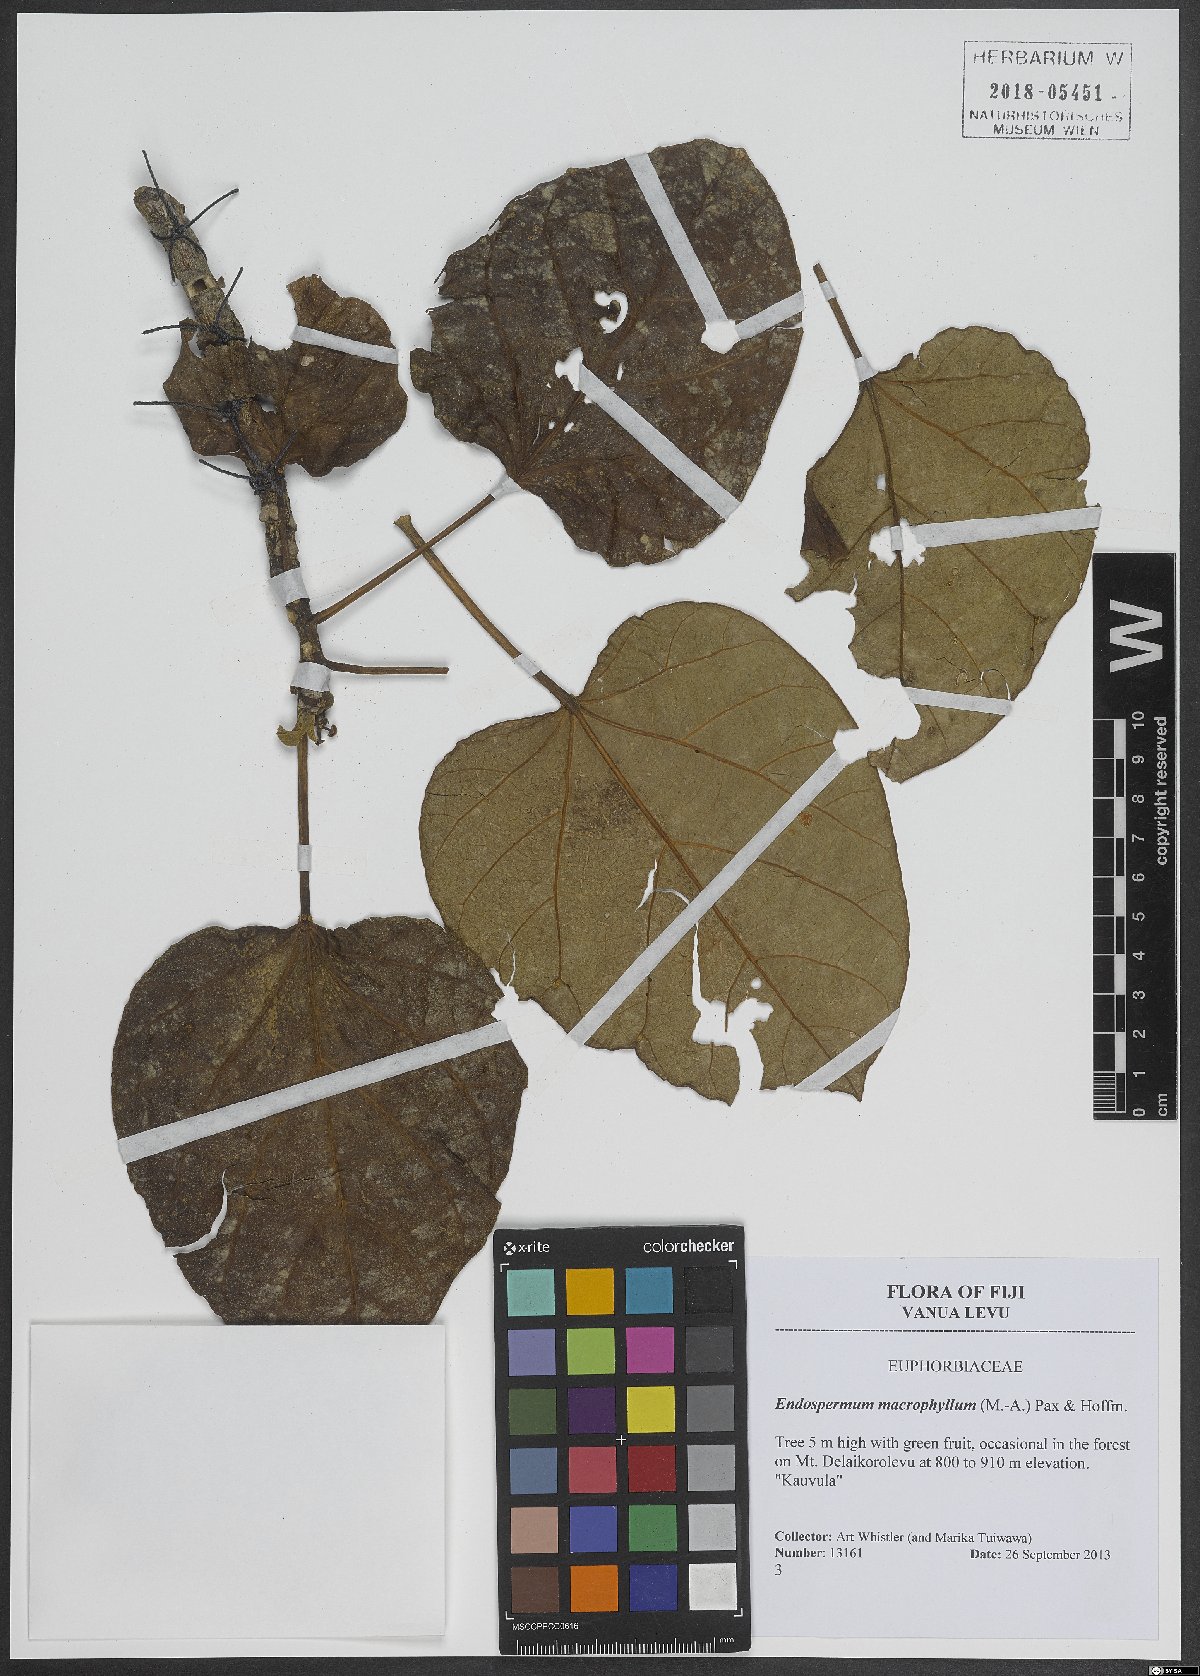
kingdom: Plantae
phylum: Tracheophyta
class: Magnoliopsida
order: Malpighiales
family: Euphorbiaceae
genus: Endospermum
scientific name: Endospermum macrophyllum
